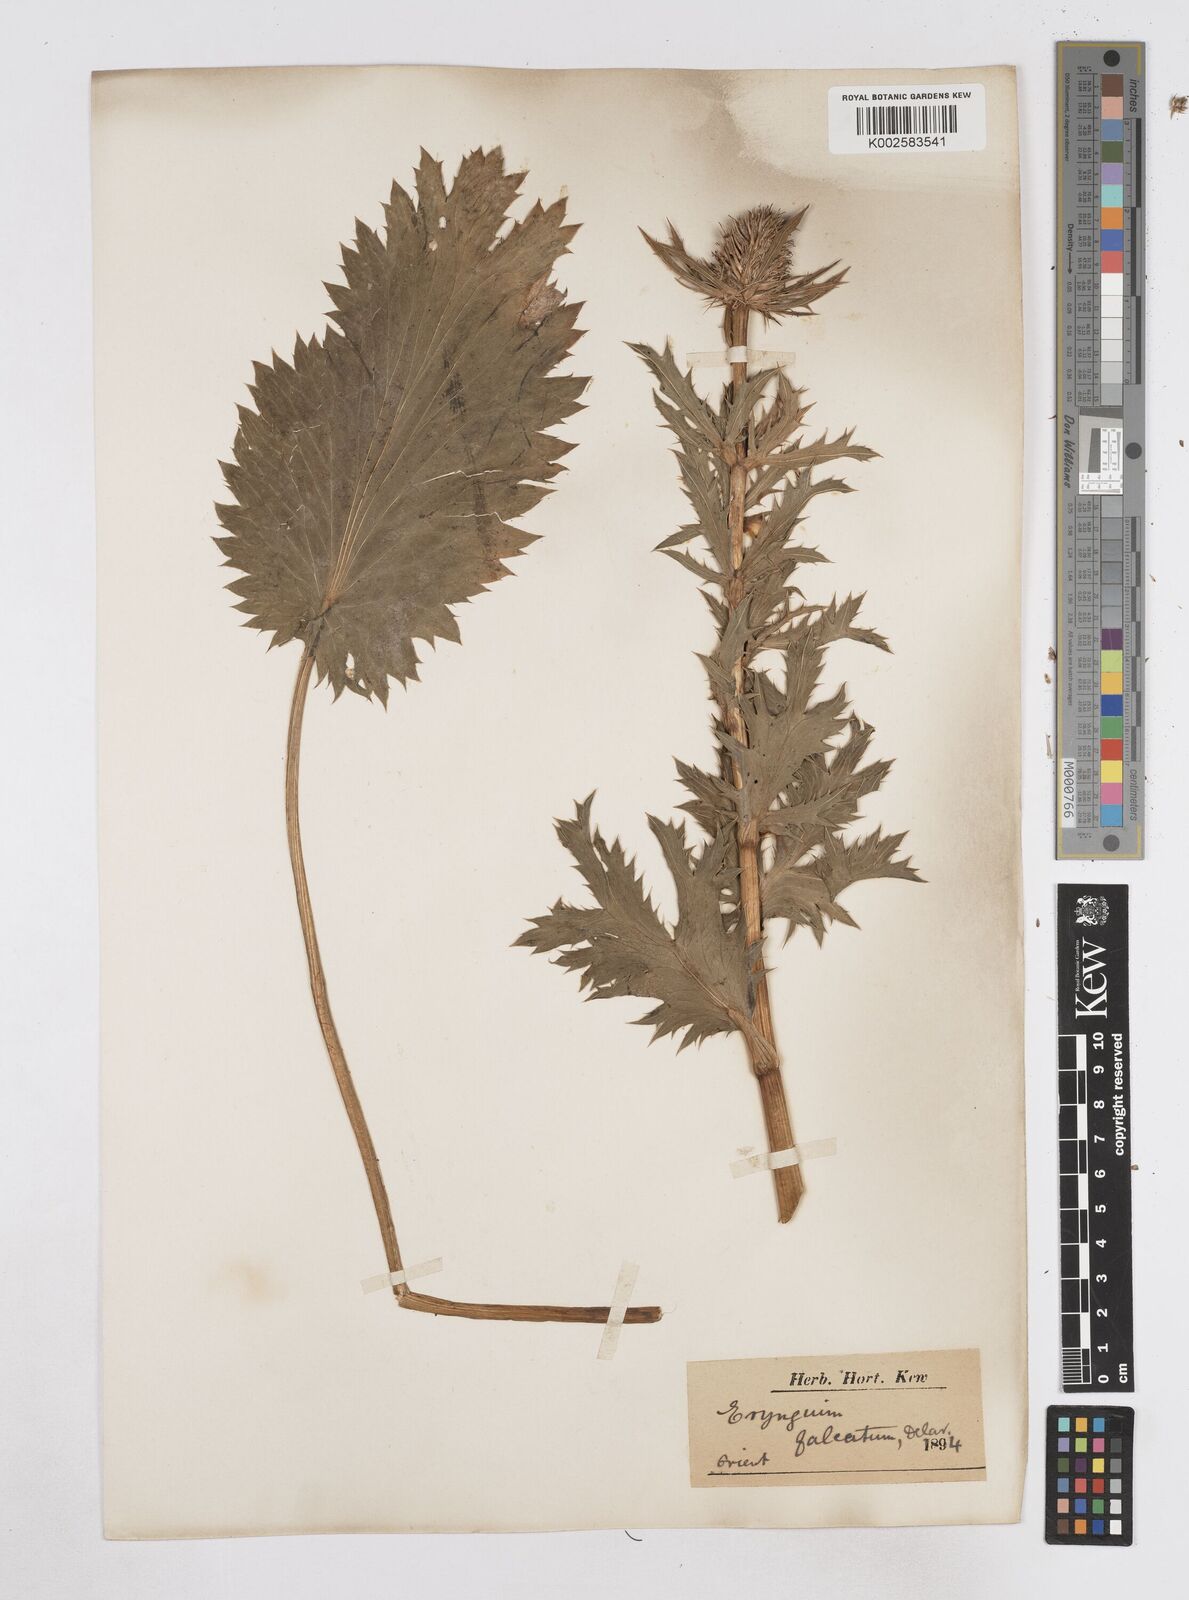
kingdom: Plantae
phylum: Tracheophyta
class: Magnoliopsida
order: Apiales
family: Apiaceae
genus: Eryngium
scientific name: Eryngium falcatum
